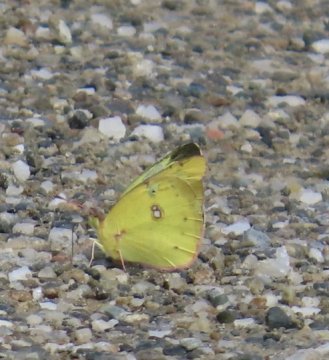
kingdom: Animalia
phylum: Arthropoda
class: Insecta
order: Lepidoptera
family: Pieridae
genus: Colias
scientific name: Colias philodice
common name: Clouded Sulphur
